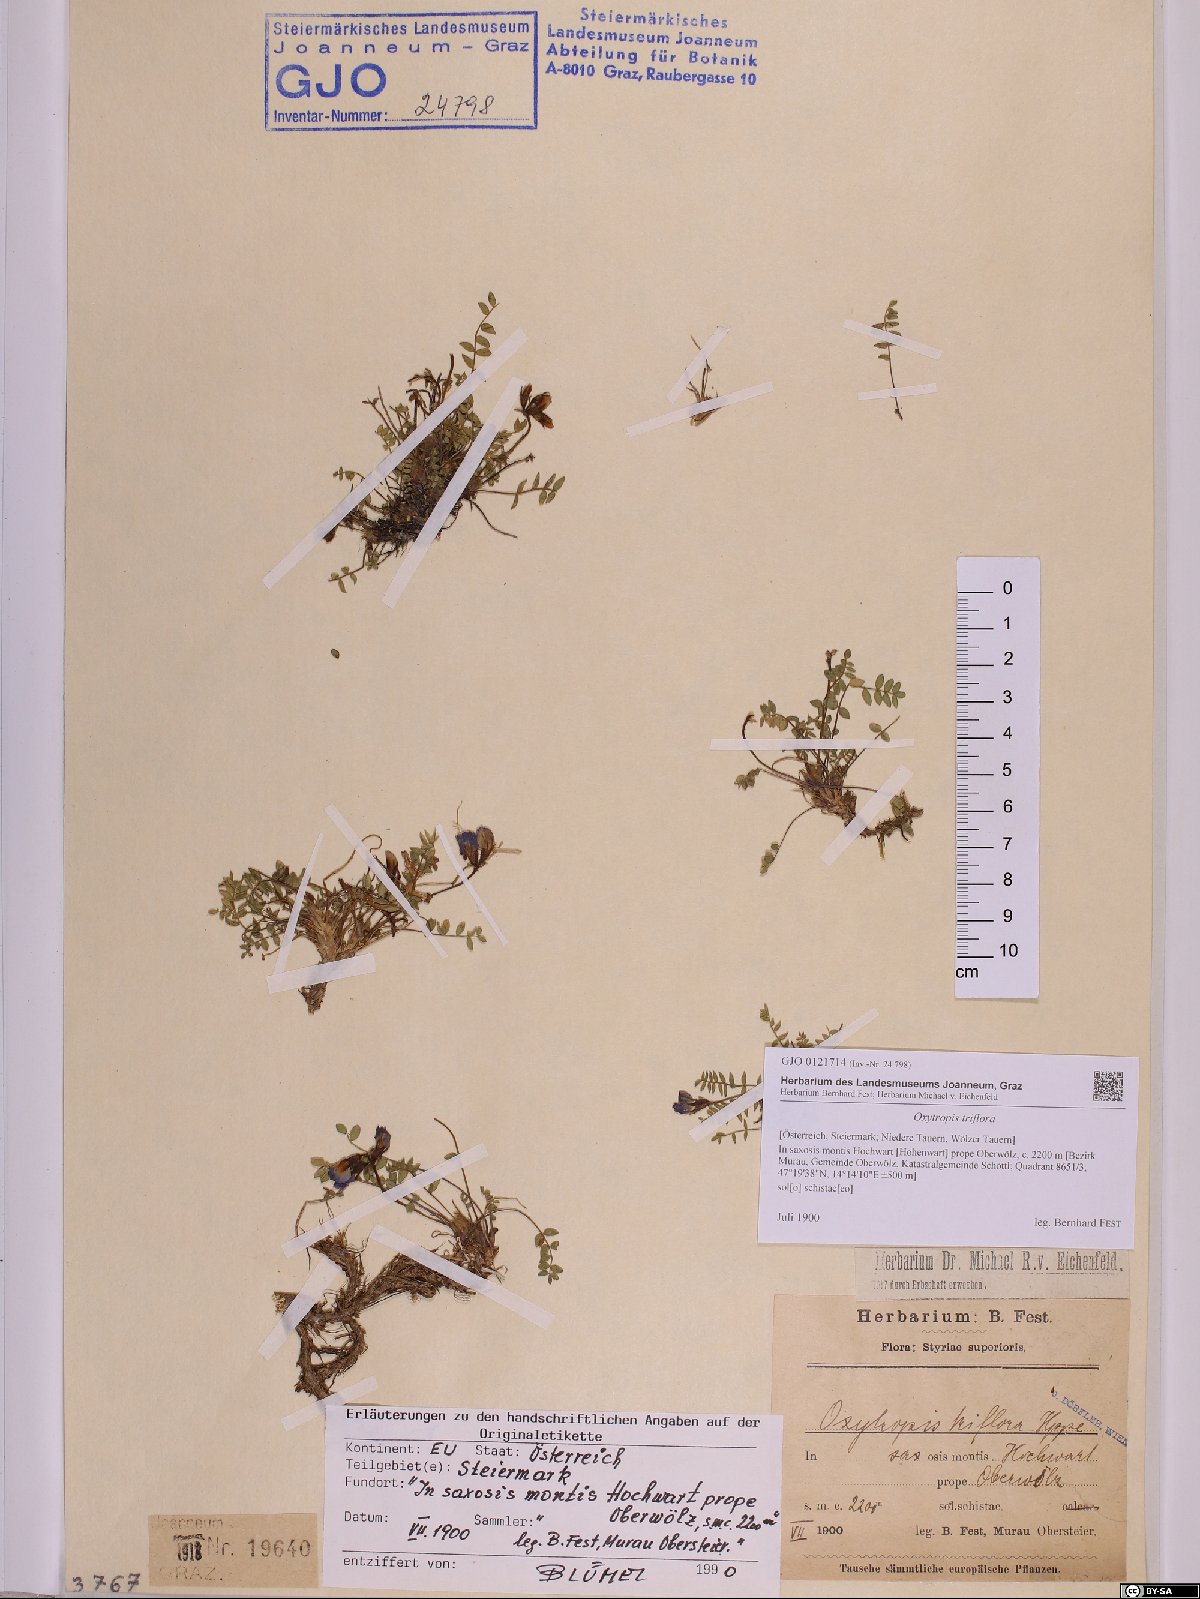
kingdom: Plantae
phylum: Tracheophyta
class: Magnoliopsida
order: Fabales
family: Fabaceae
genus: Oxytropis
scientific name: Oxytropis triflora
